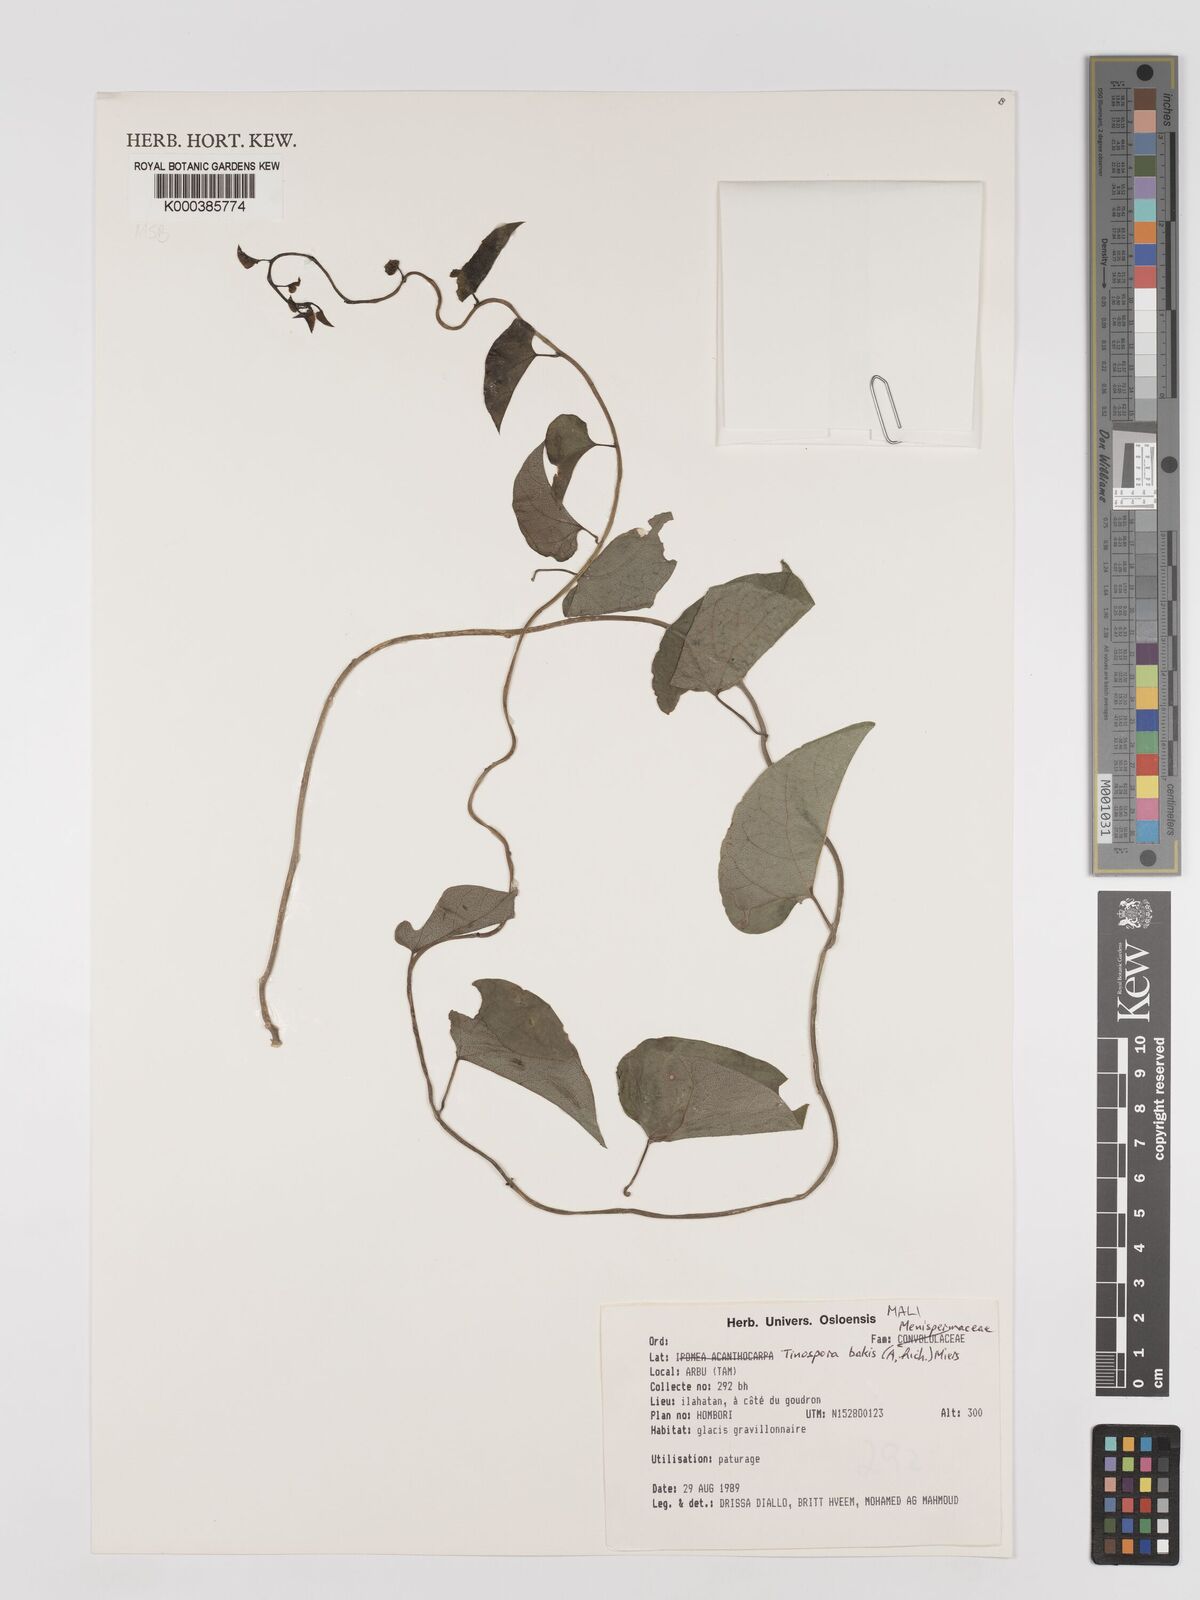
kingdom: Plantae
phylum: Tracheophyta
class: Magnoliopsida
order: Ranunculales
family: Menispermaceae
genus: Tinospora
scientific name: Tinospora bakis
